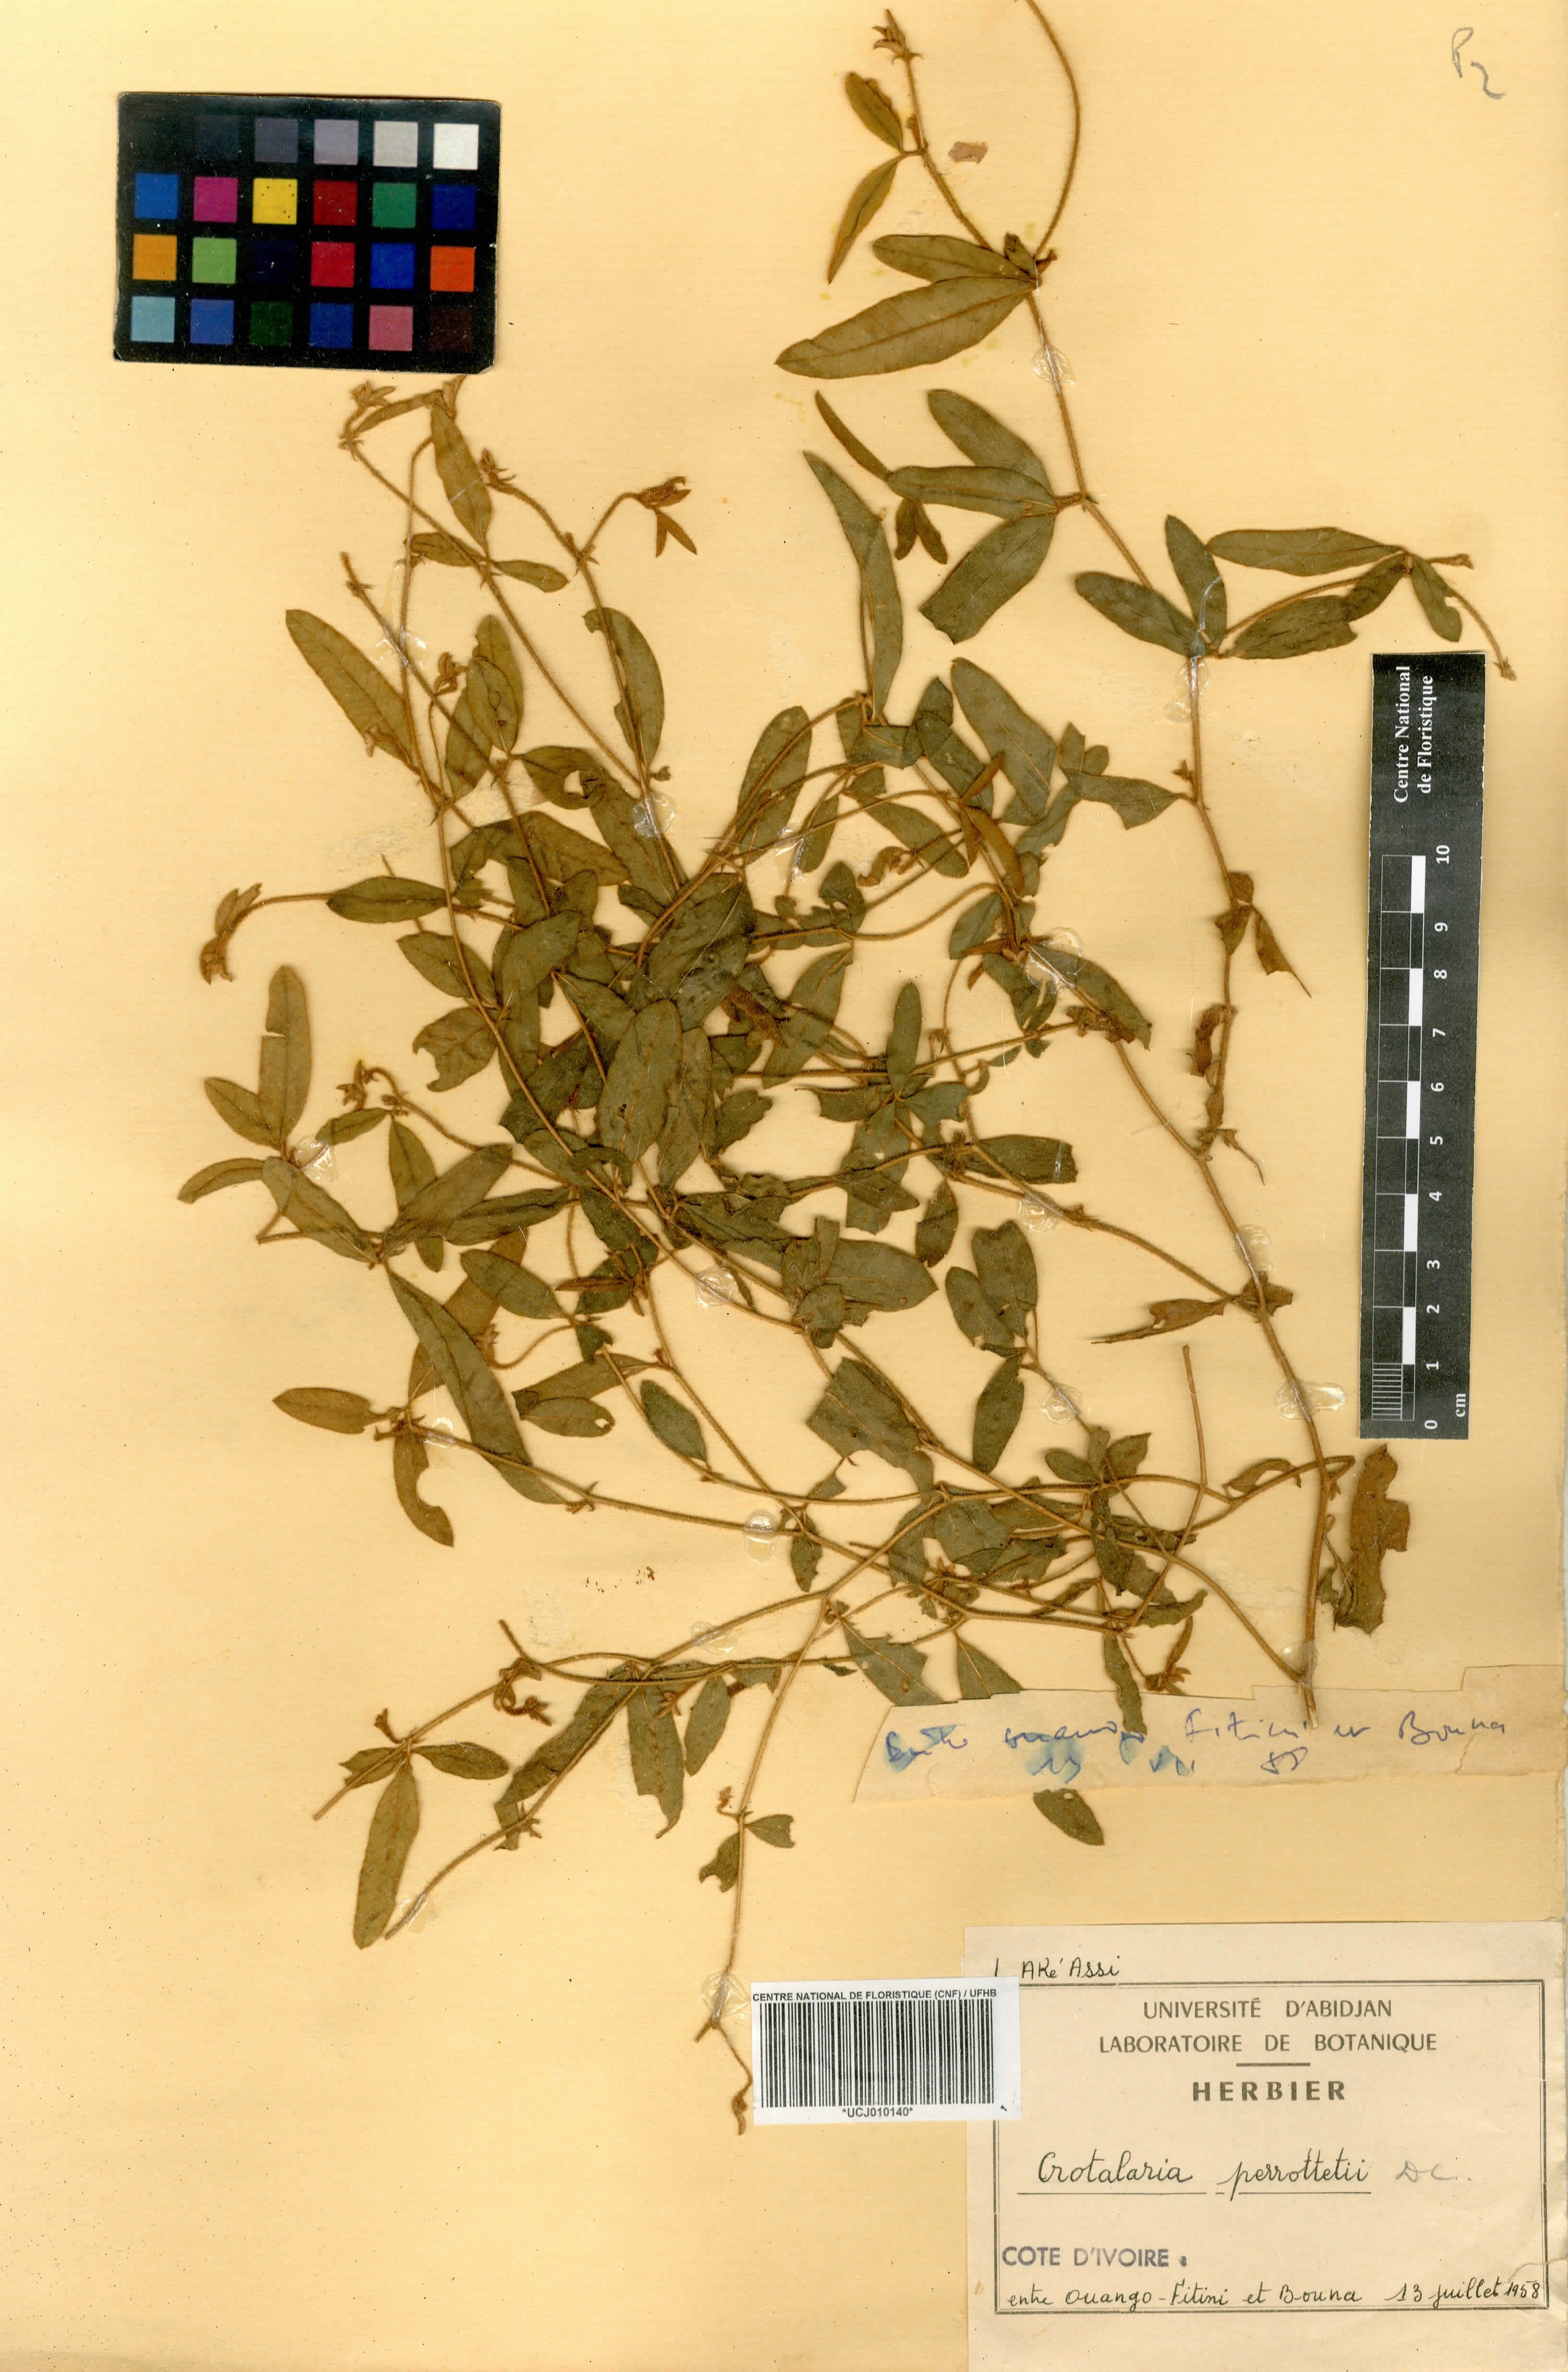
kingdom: Plantae
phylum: Tracheophyta
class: Magnoliopsida
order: Fabales
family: Fabaceae
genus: Crotalaria
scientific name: Crotalaria perrottetii
